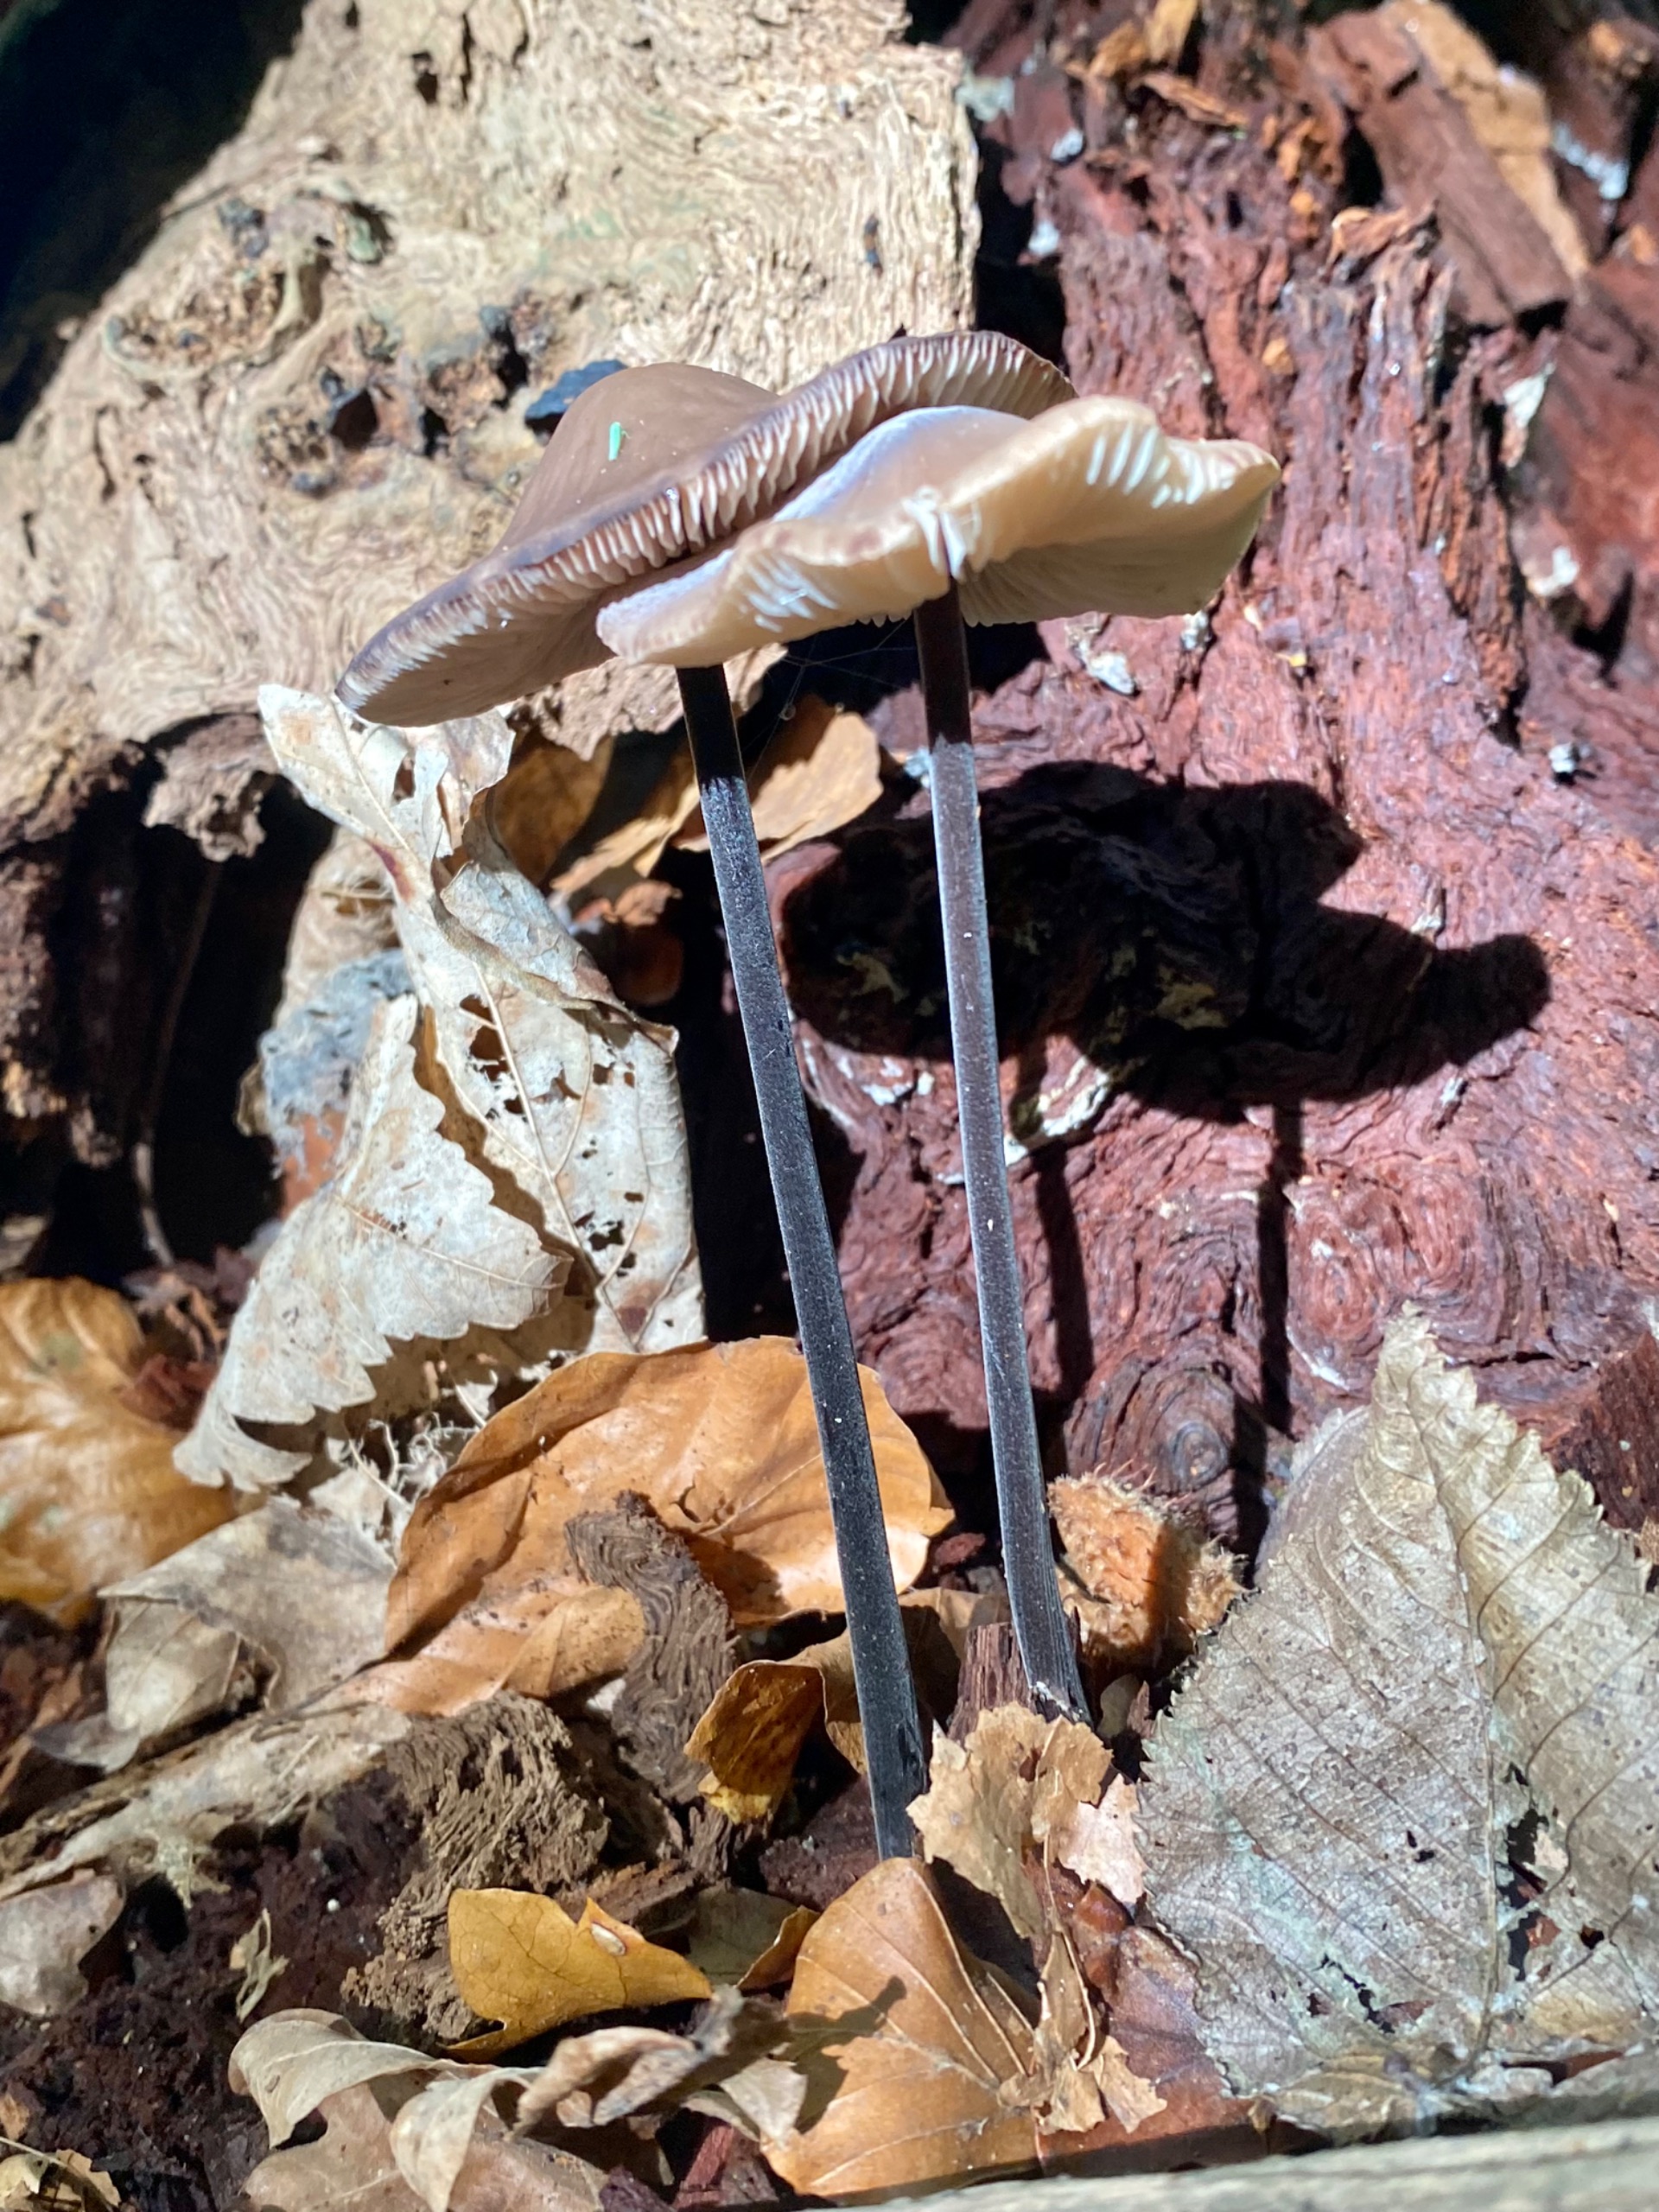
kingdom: Fungi
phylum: Basidiomycota
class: Agaricomycetes
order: Agaricales
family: Omphalotaceae
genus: Mycetinis
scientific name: Mycetinis alliaceus
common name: Stor løghat
